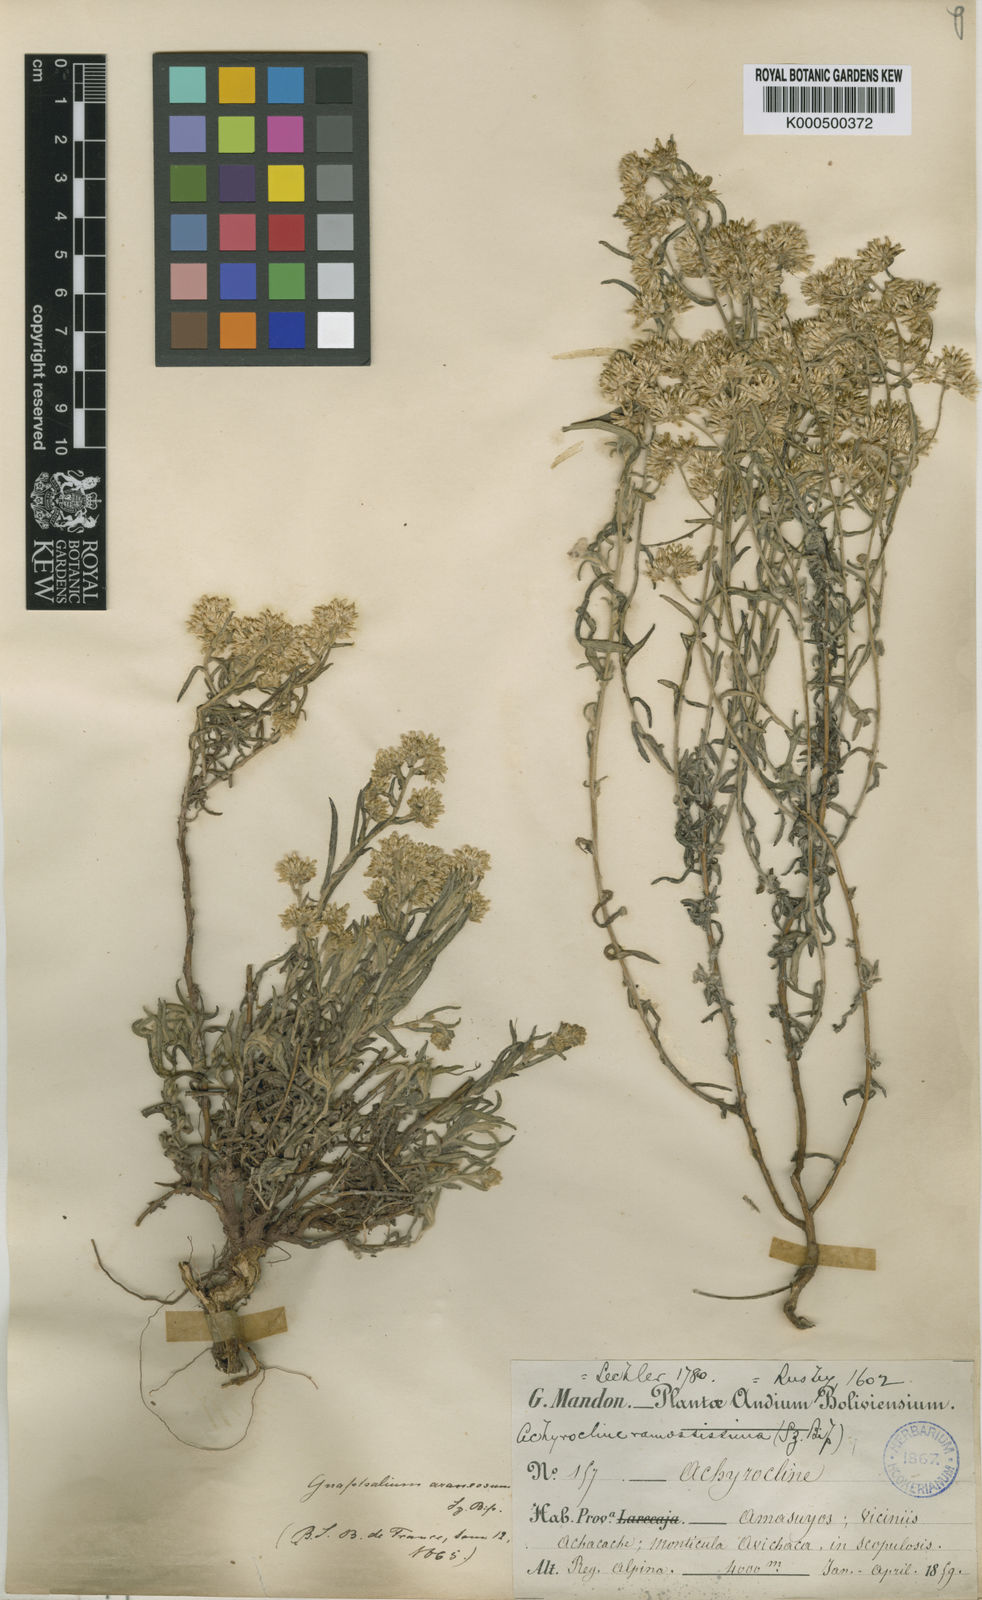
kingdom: Plantae
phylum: Tracheophyta
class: Magnoliopsida
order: Asterales
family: Asteraceae
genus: Achyrocline
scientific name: Achyrocline
